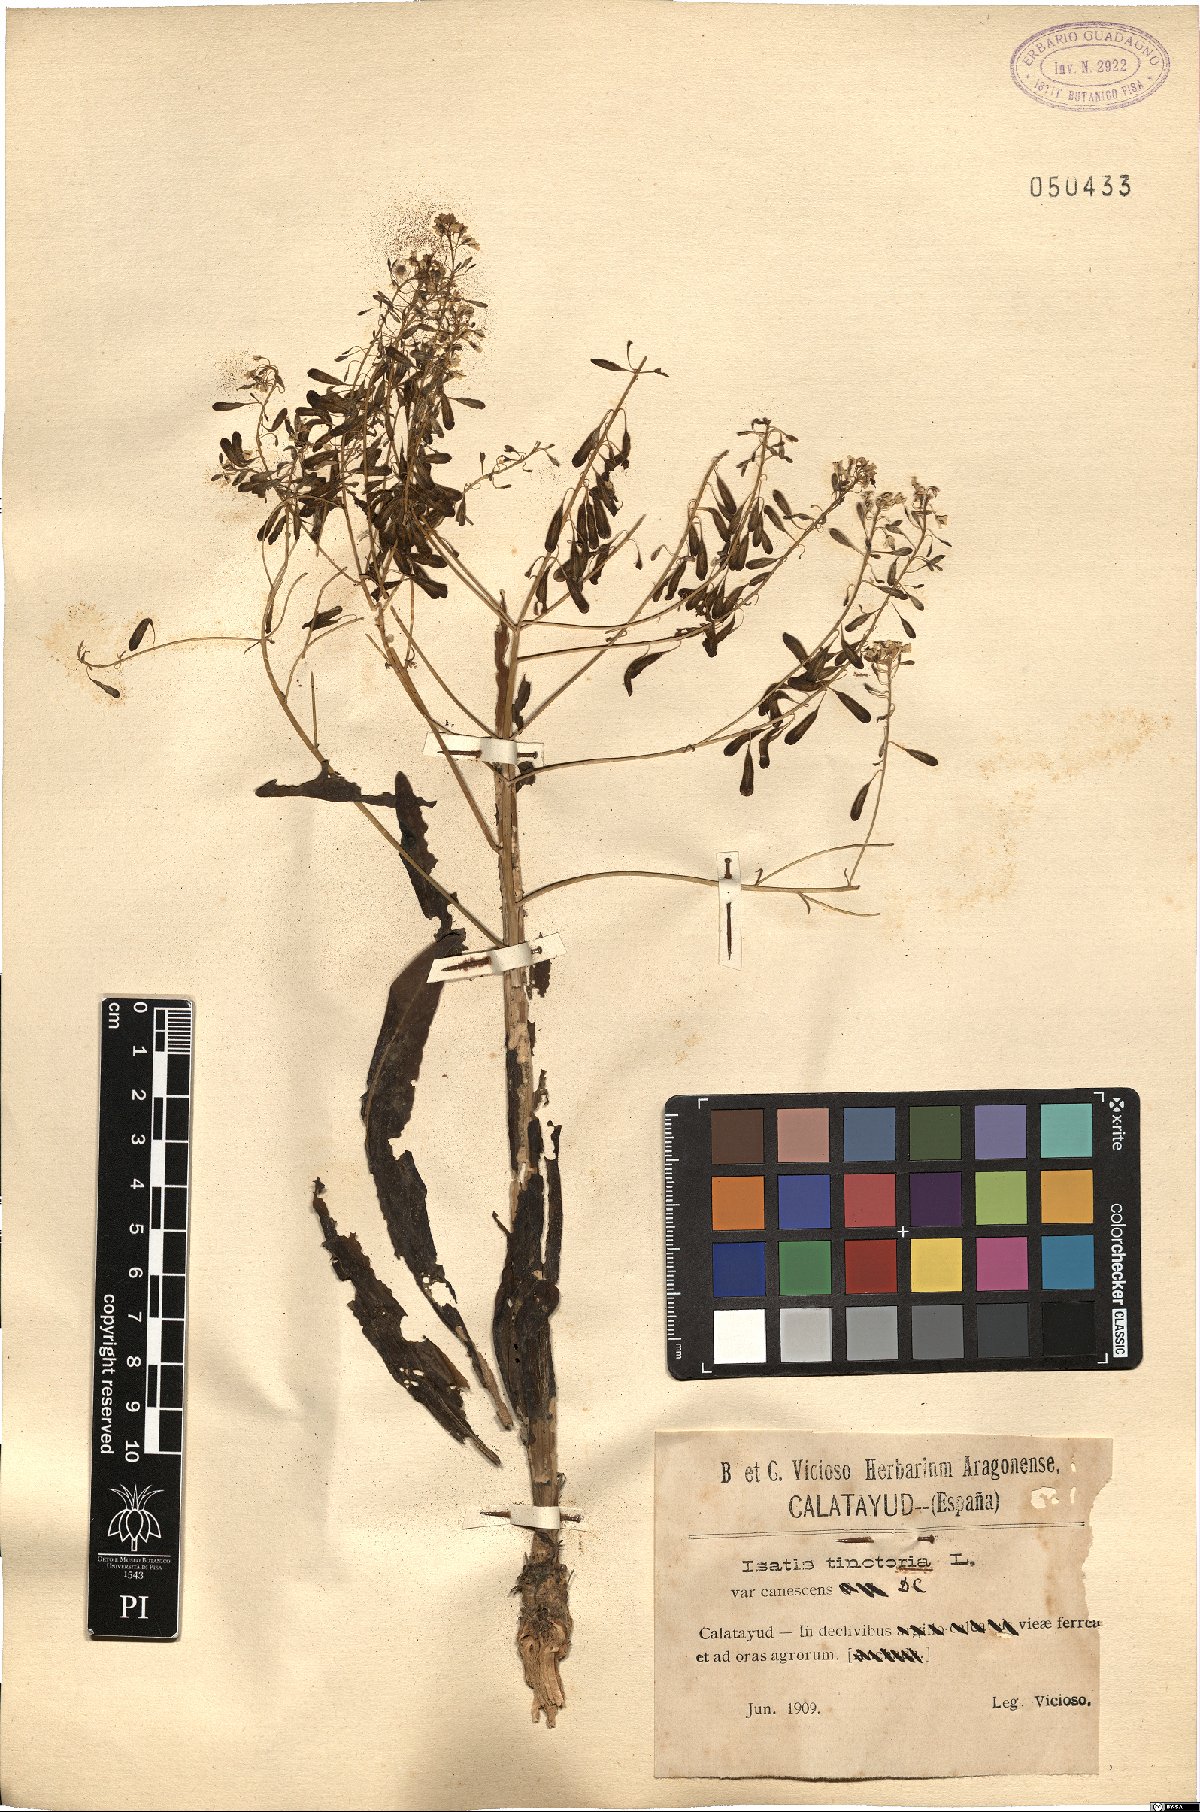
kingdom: Plantae
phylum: Tracheophyta
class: Magnoliopsida
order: Brassicales
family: Brassicaceae
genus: Isatis
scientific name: Isatis tinctoria
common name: Woad
